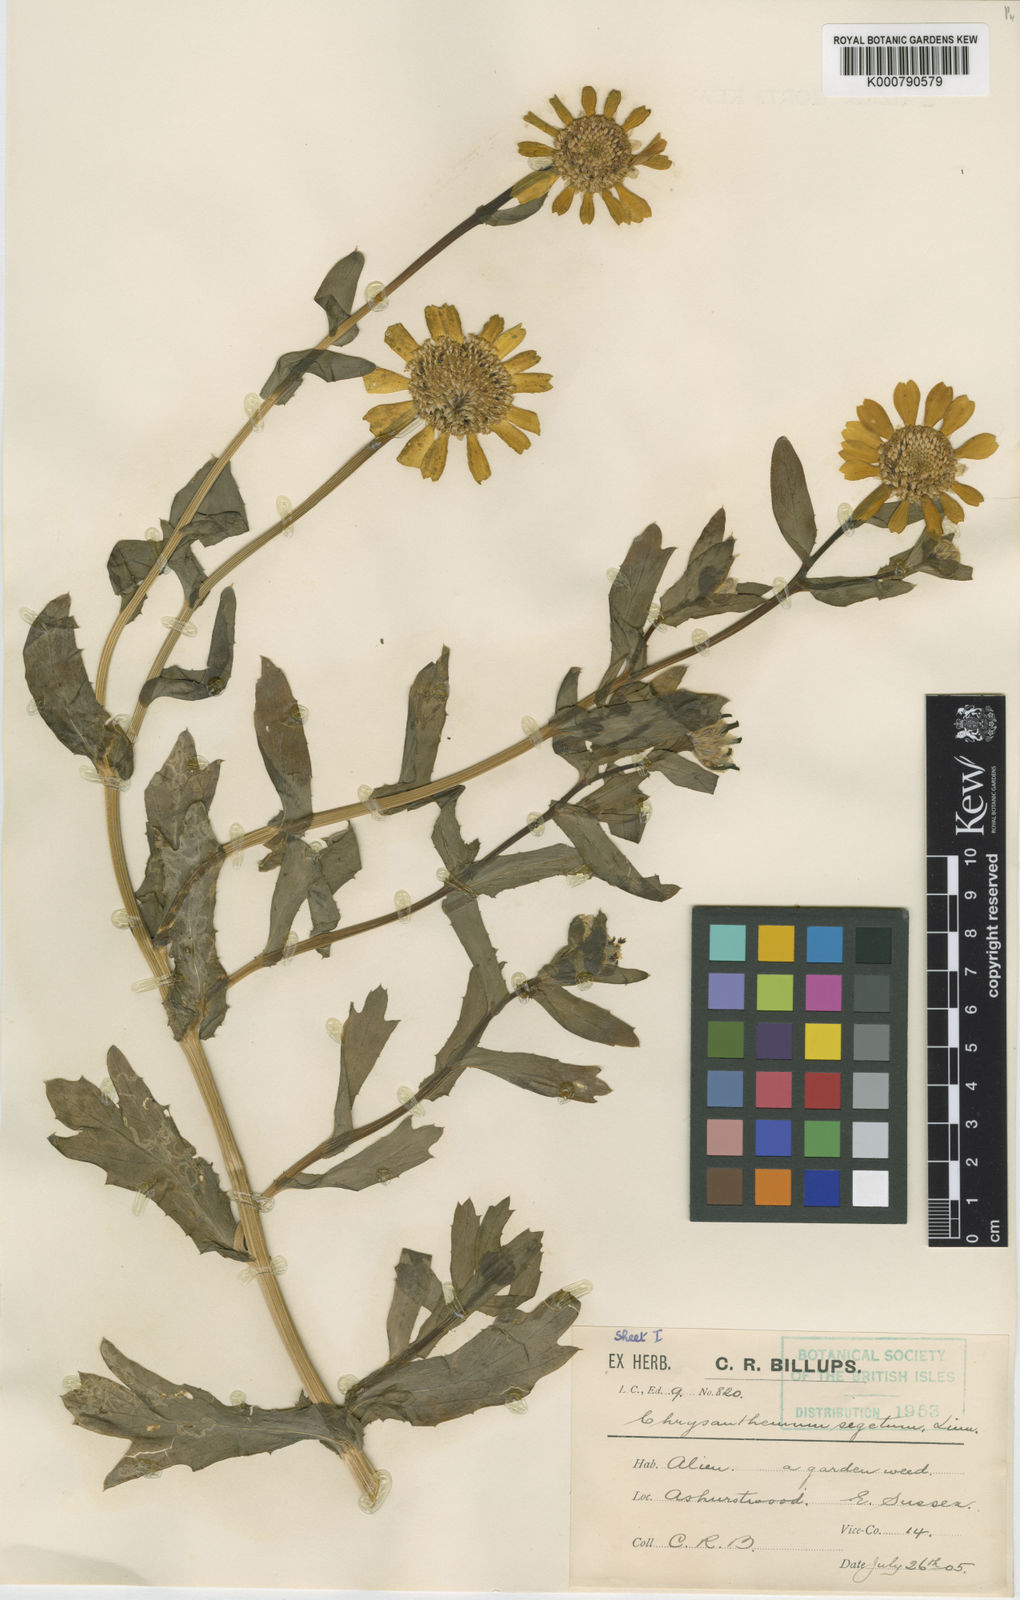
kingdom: Plantae
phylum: Tracheophyta
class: Magnoliopsida
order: Asterales
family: Asteraceae
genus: Glebionis
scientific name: Glebionis
